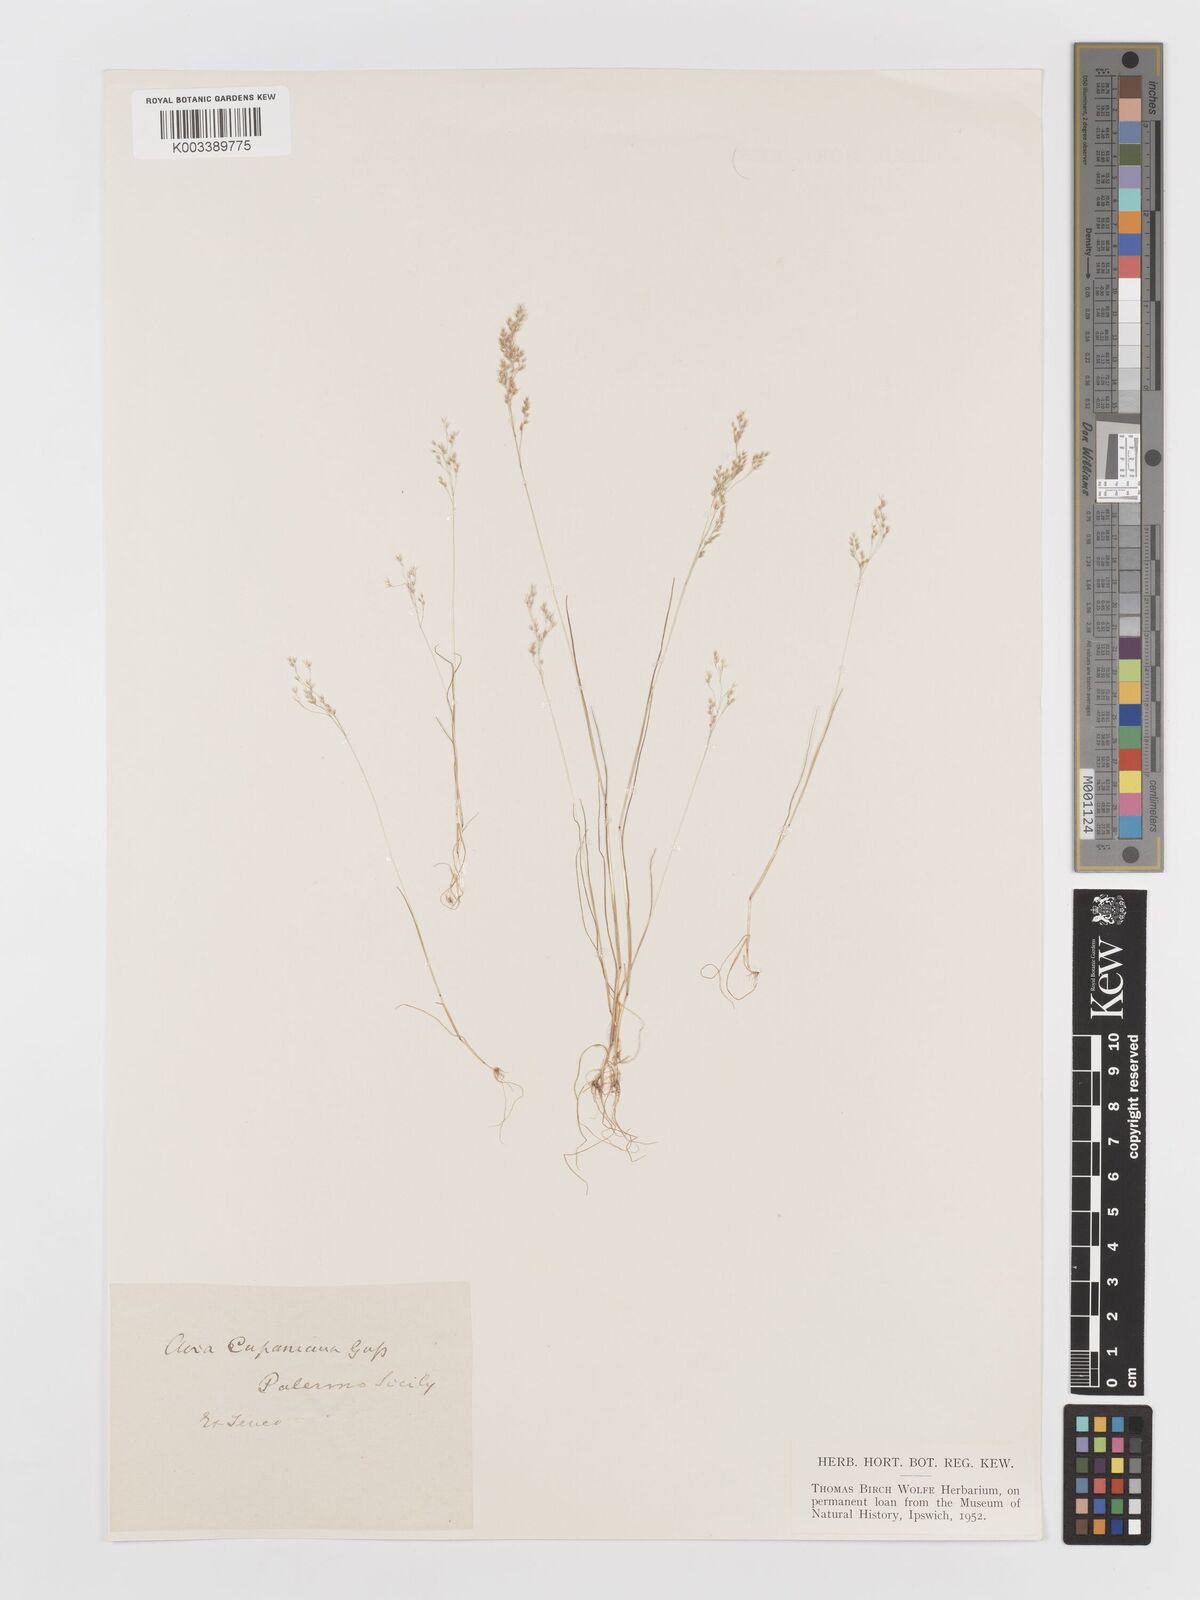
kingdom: Plantae
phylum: Tracheophyta
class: Liliopsida
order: Poales
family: Poaceae
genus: Aira
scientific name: Aira cupaniana
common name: Silver hairgrass
